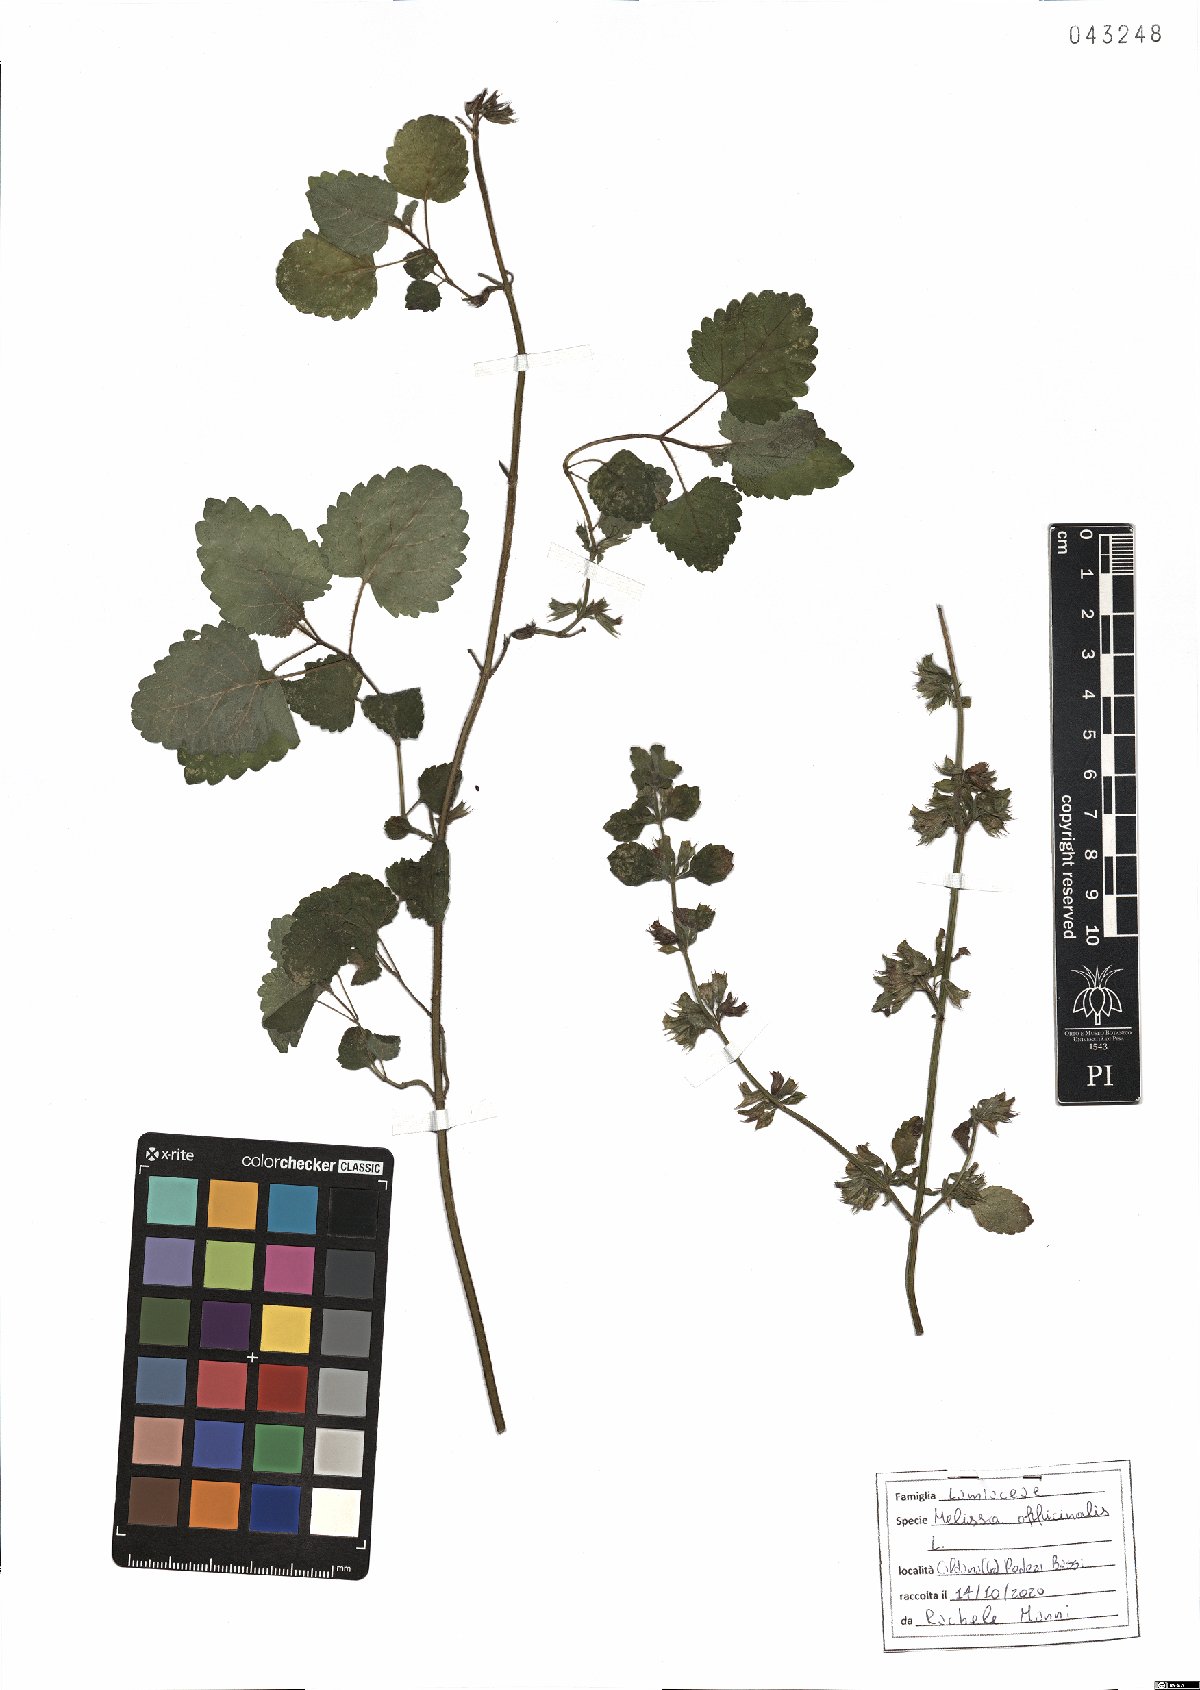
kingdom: Plantae
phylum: Tracheophyta
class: Magnoliopsida
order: Lamiales
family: Lamiaceae
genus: Melissa
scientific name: Melissa officinalis
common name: Balm
